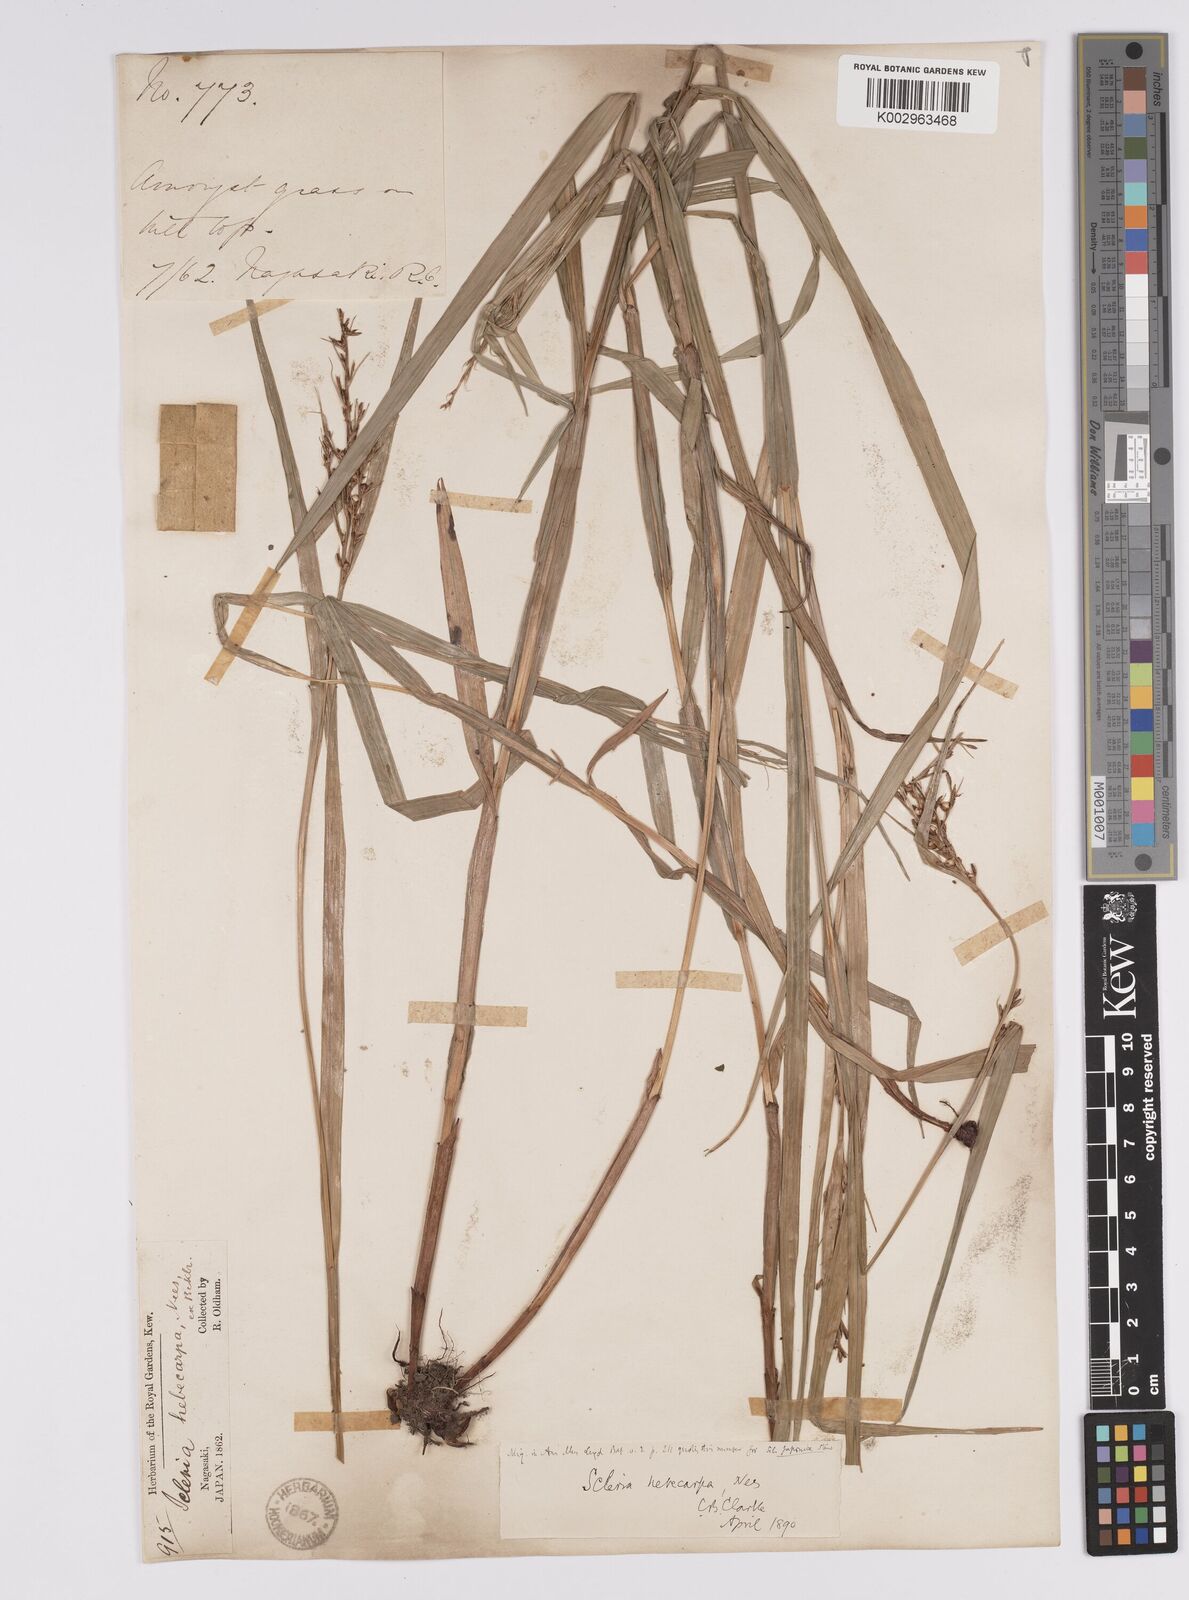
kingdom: Plantae
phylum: Tracheophyta
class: Liliopsida
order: Poales
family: Cyperaceae
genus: Scleria
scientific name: Scleria levis
